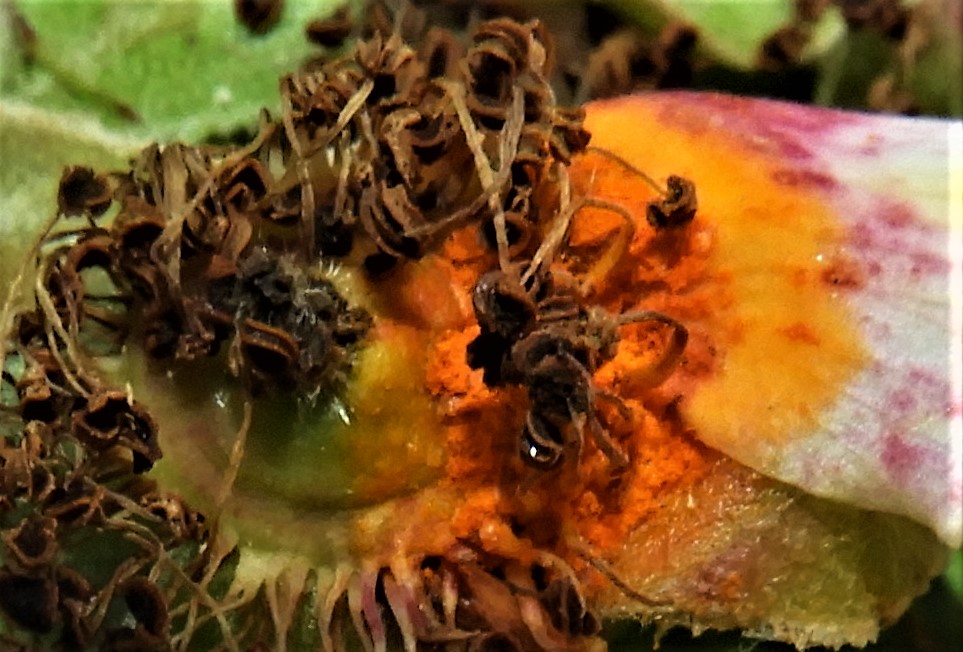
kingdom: Fungi
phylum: Basidiomycota
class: Pucciniomycetes
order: Pucciniales
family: Phragmidiaceae
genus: Phragmidium
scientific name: Phragmidium
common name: flercellerust
